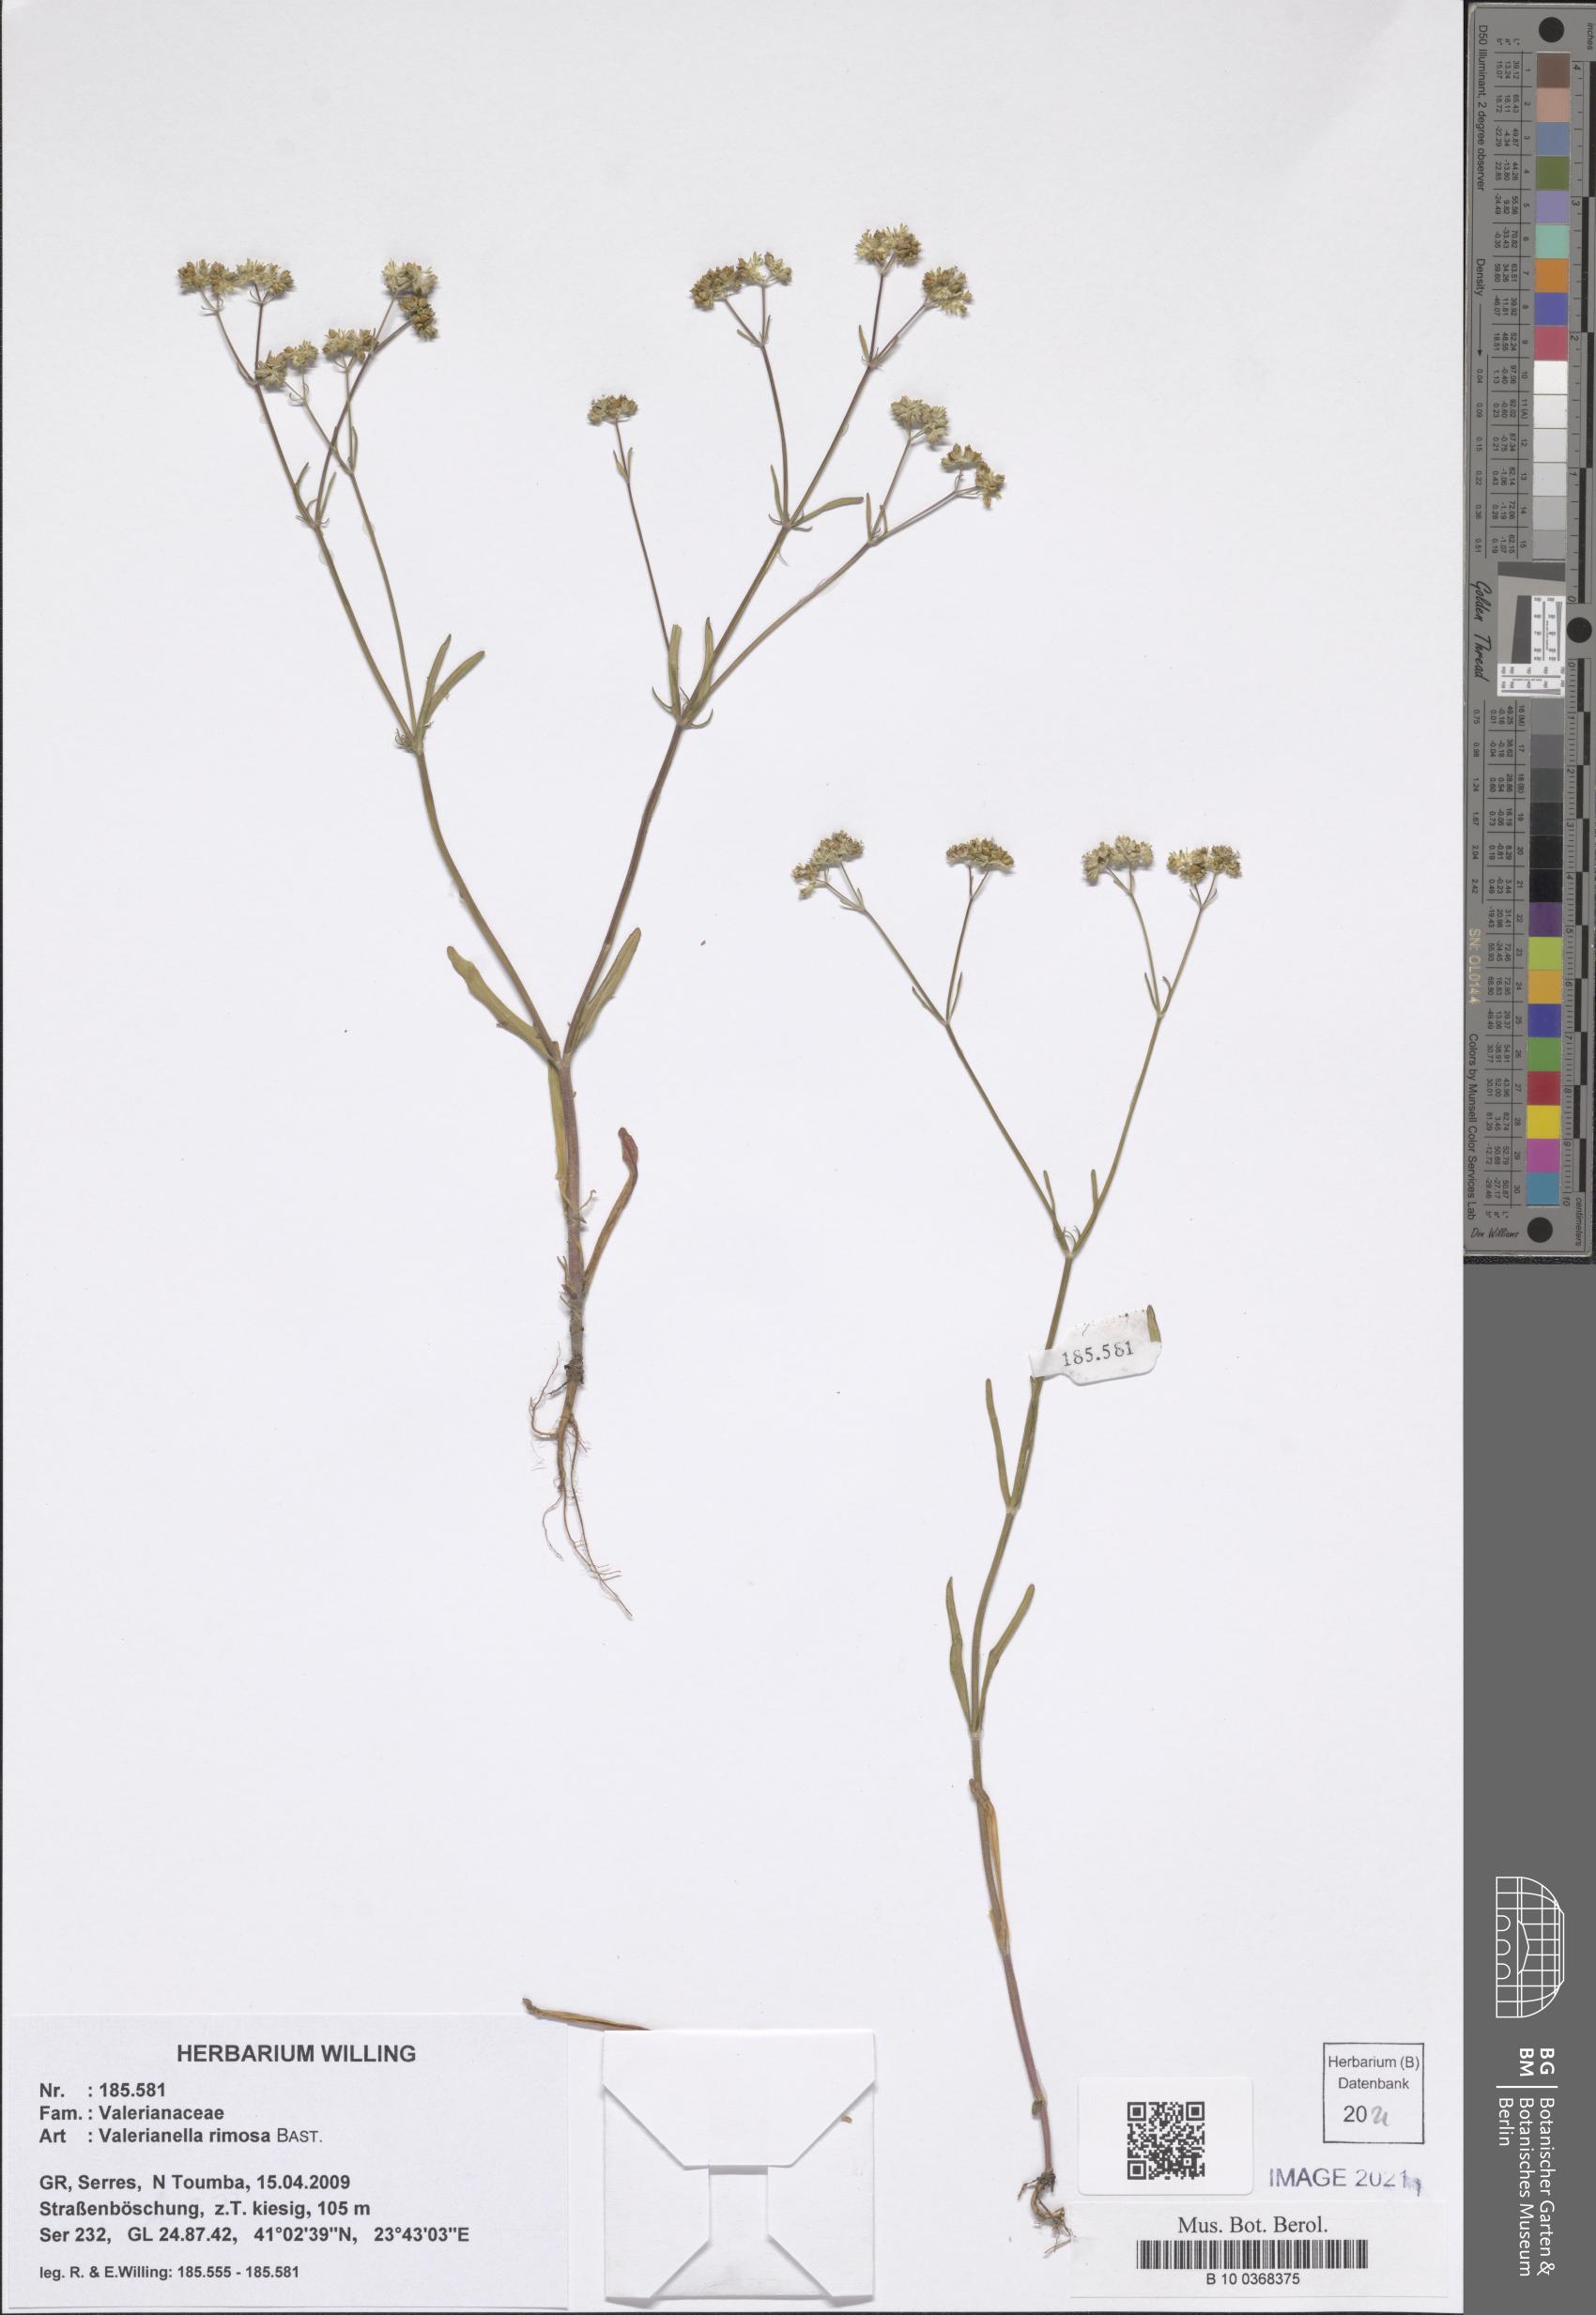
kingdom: Plantae
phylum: Tracheophyta
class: Magnoliopsida
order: Dipsacales
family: Caprifoliaceae
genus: Valerianella
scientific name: Valerianella rimosa
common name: Broad-fruited cornsalad
